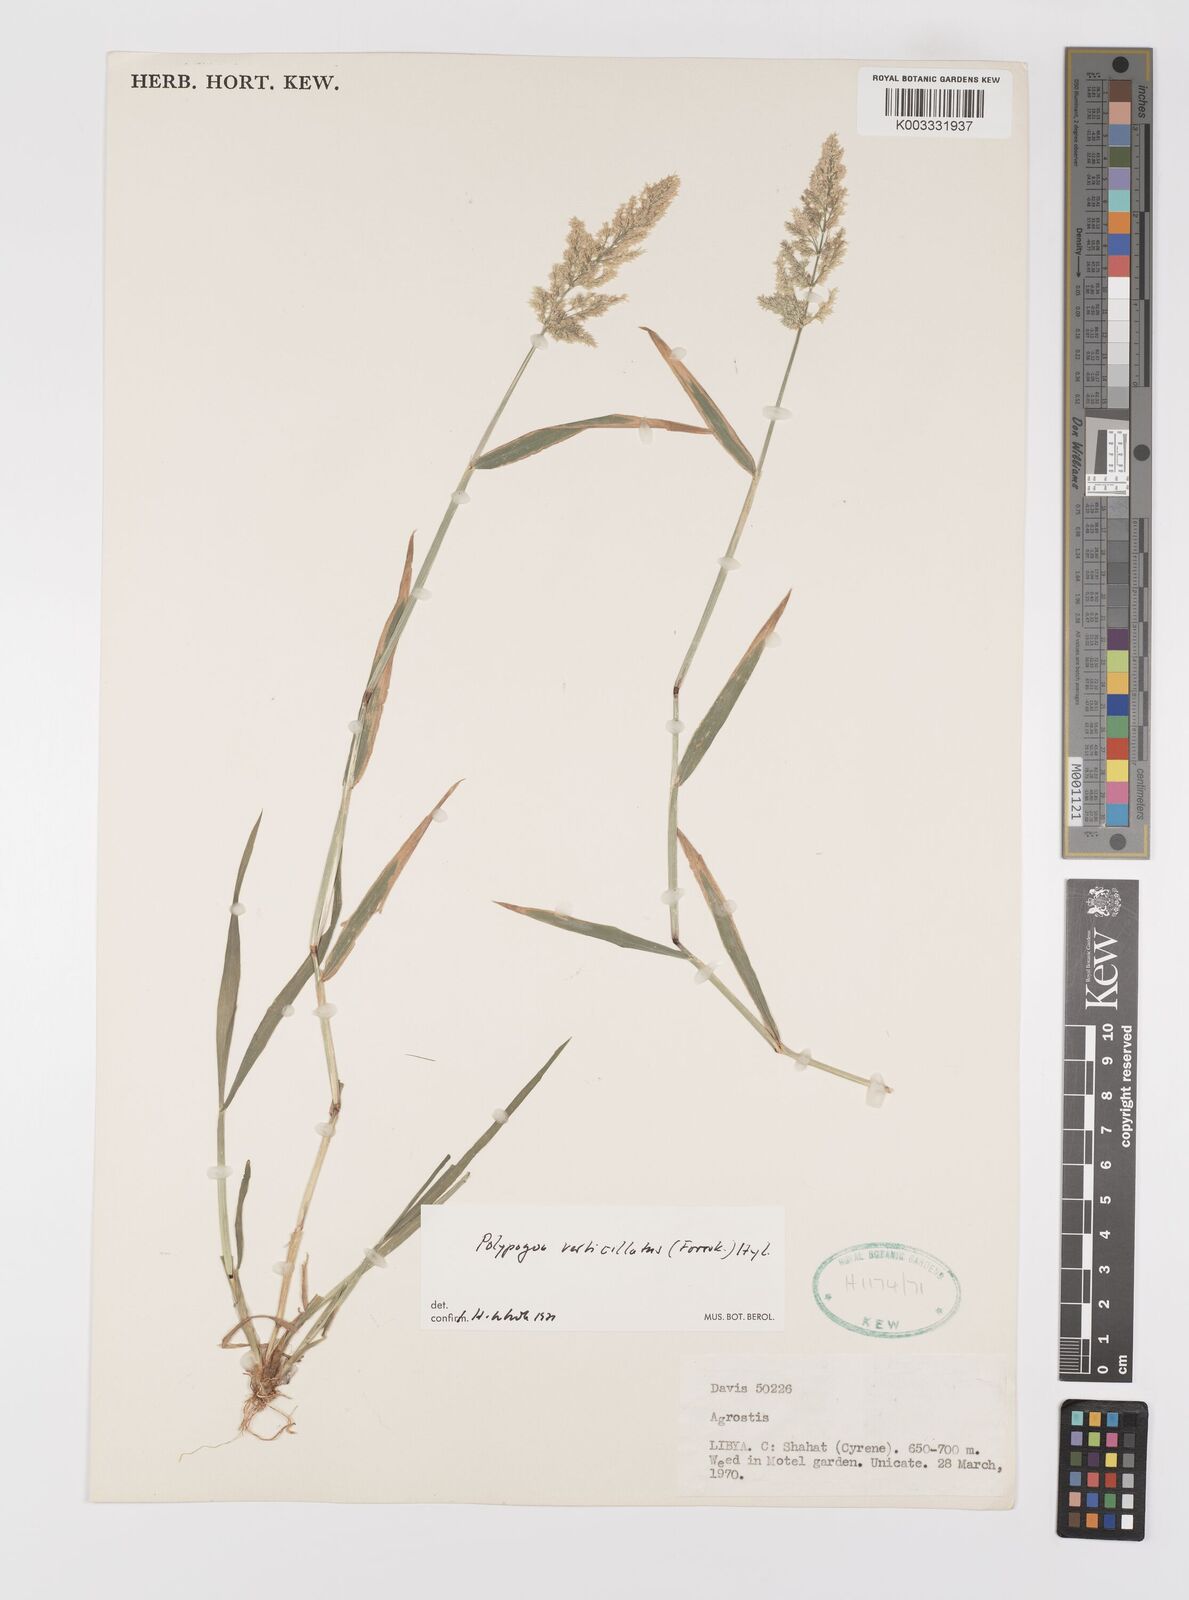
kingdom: Plantae
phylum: Tracheophyta
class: Liliopsida
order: Poales
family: Poaceae
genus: Polypogon
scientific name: Polypogon viridis
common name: Water bent
